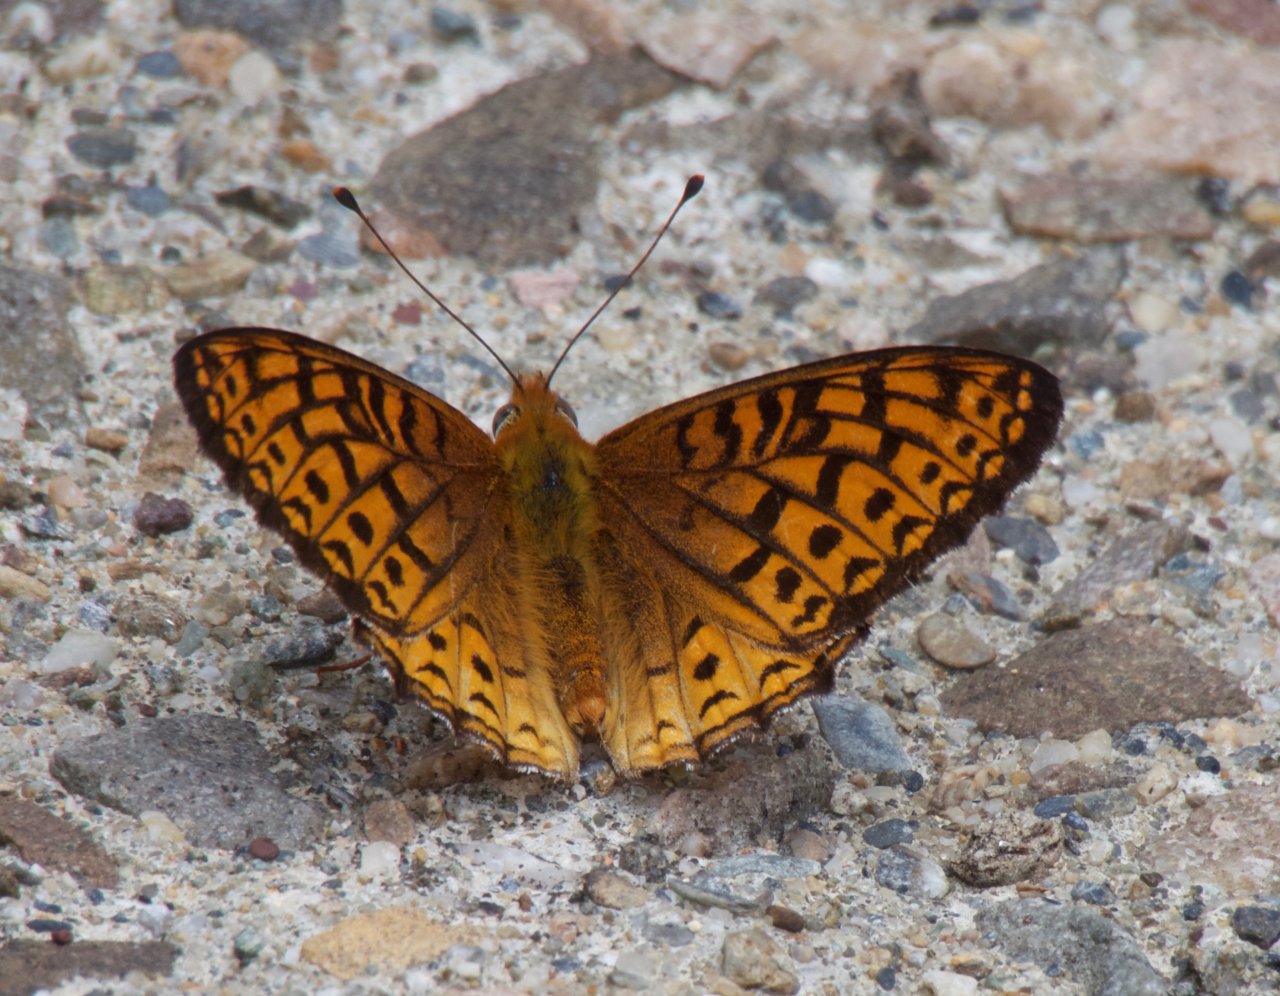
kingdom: Animalia
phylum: Arthropoda
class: Insecta
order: Lepidoptera
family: Nymphalidae
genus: Speyeria
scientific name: Speyeria atlantis
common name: Atlantis Fritillary
